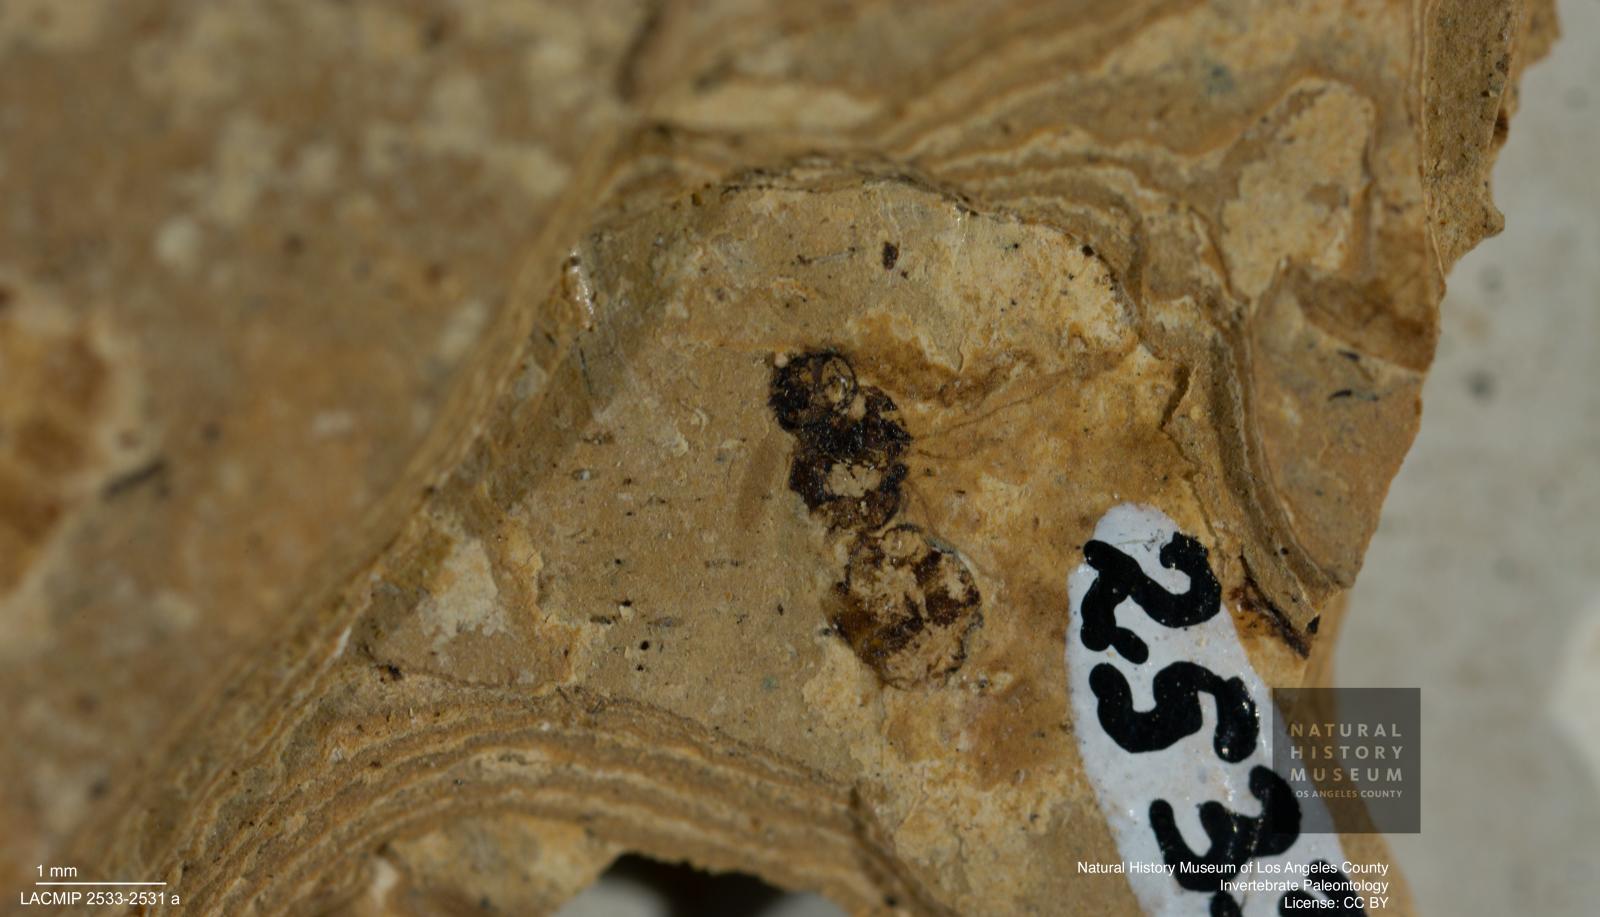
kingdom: Animalia
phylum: Arthropoda
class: Insecta
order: Hymenoptera
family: Formicidae
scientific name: Formicidae
